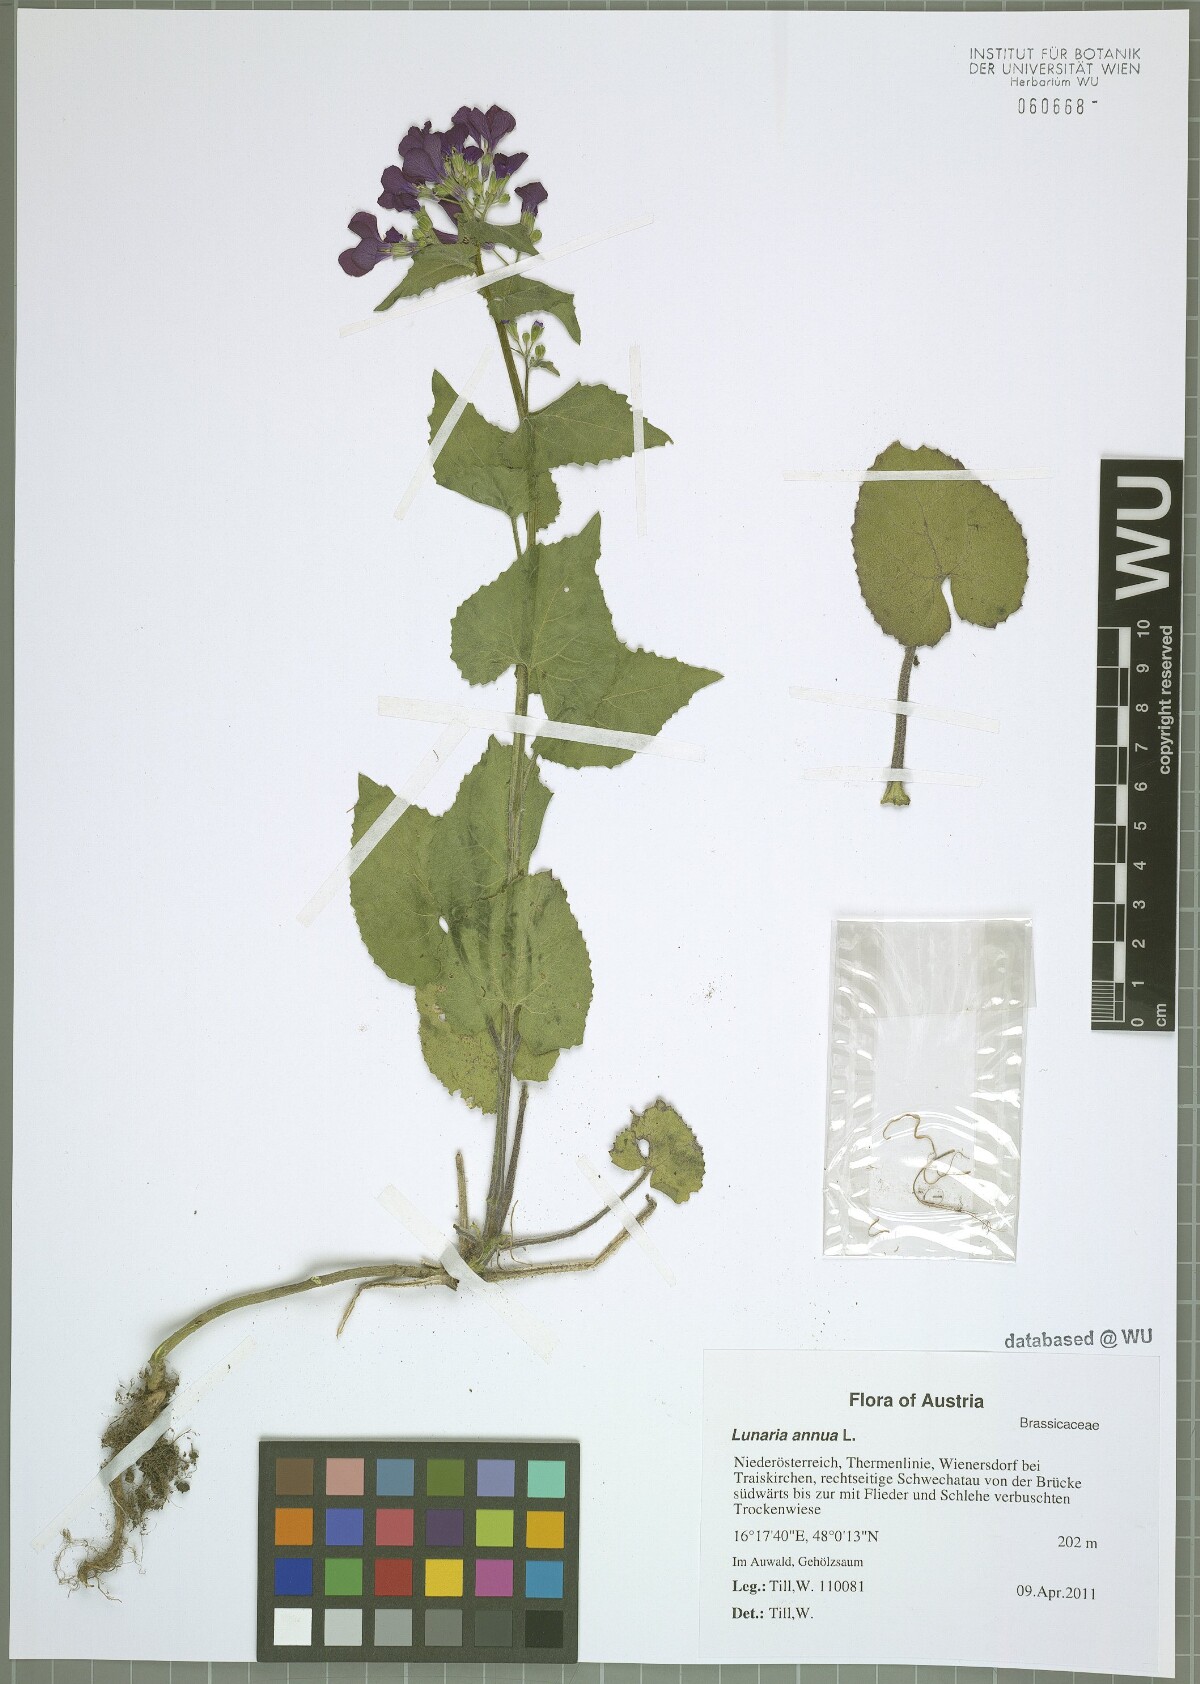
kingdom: Plantae
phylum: Tracheophyta
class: Magnoliopsida
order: Brassicales
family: Brassicaceae
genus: Lunaria
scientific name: Lunaria annua
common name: Honesty
